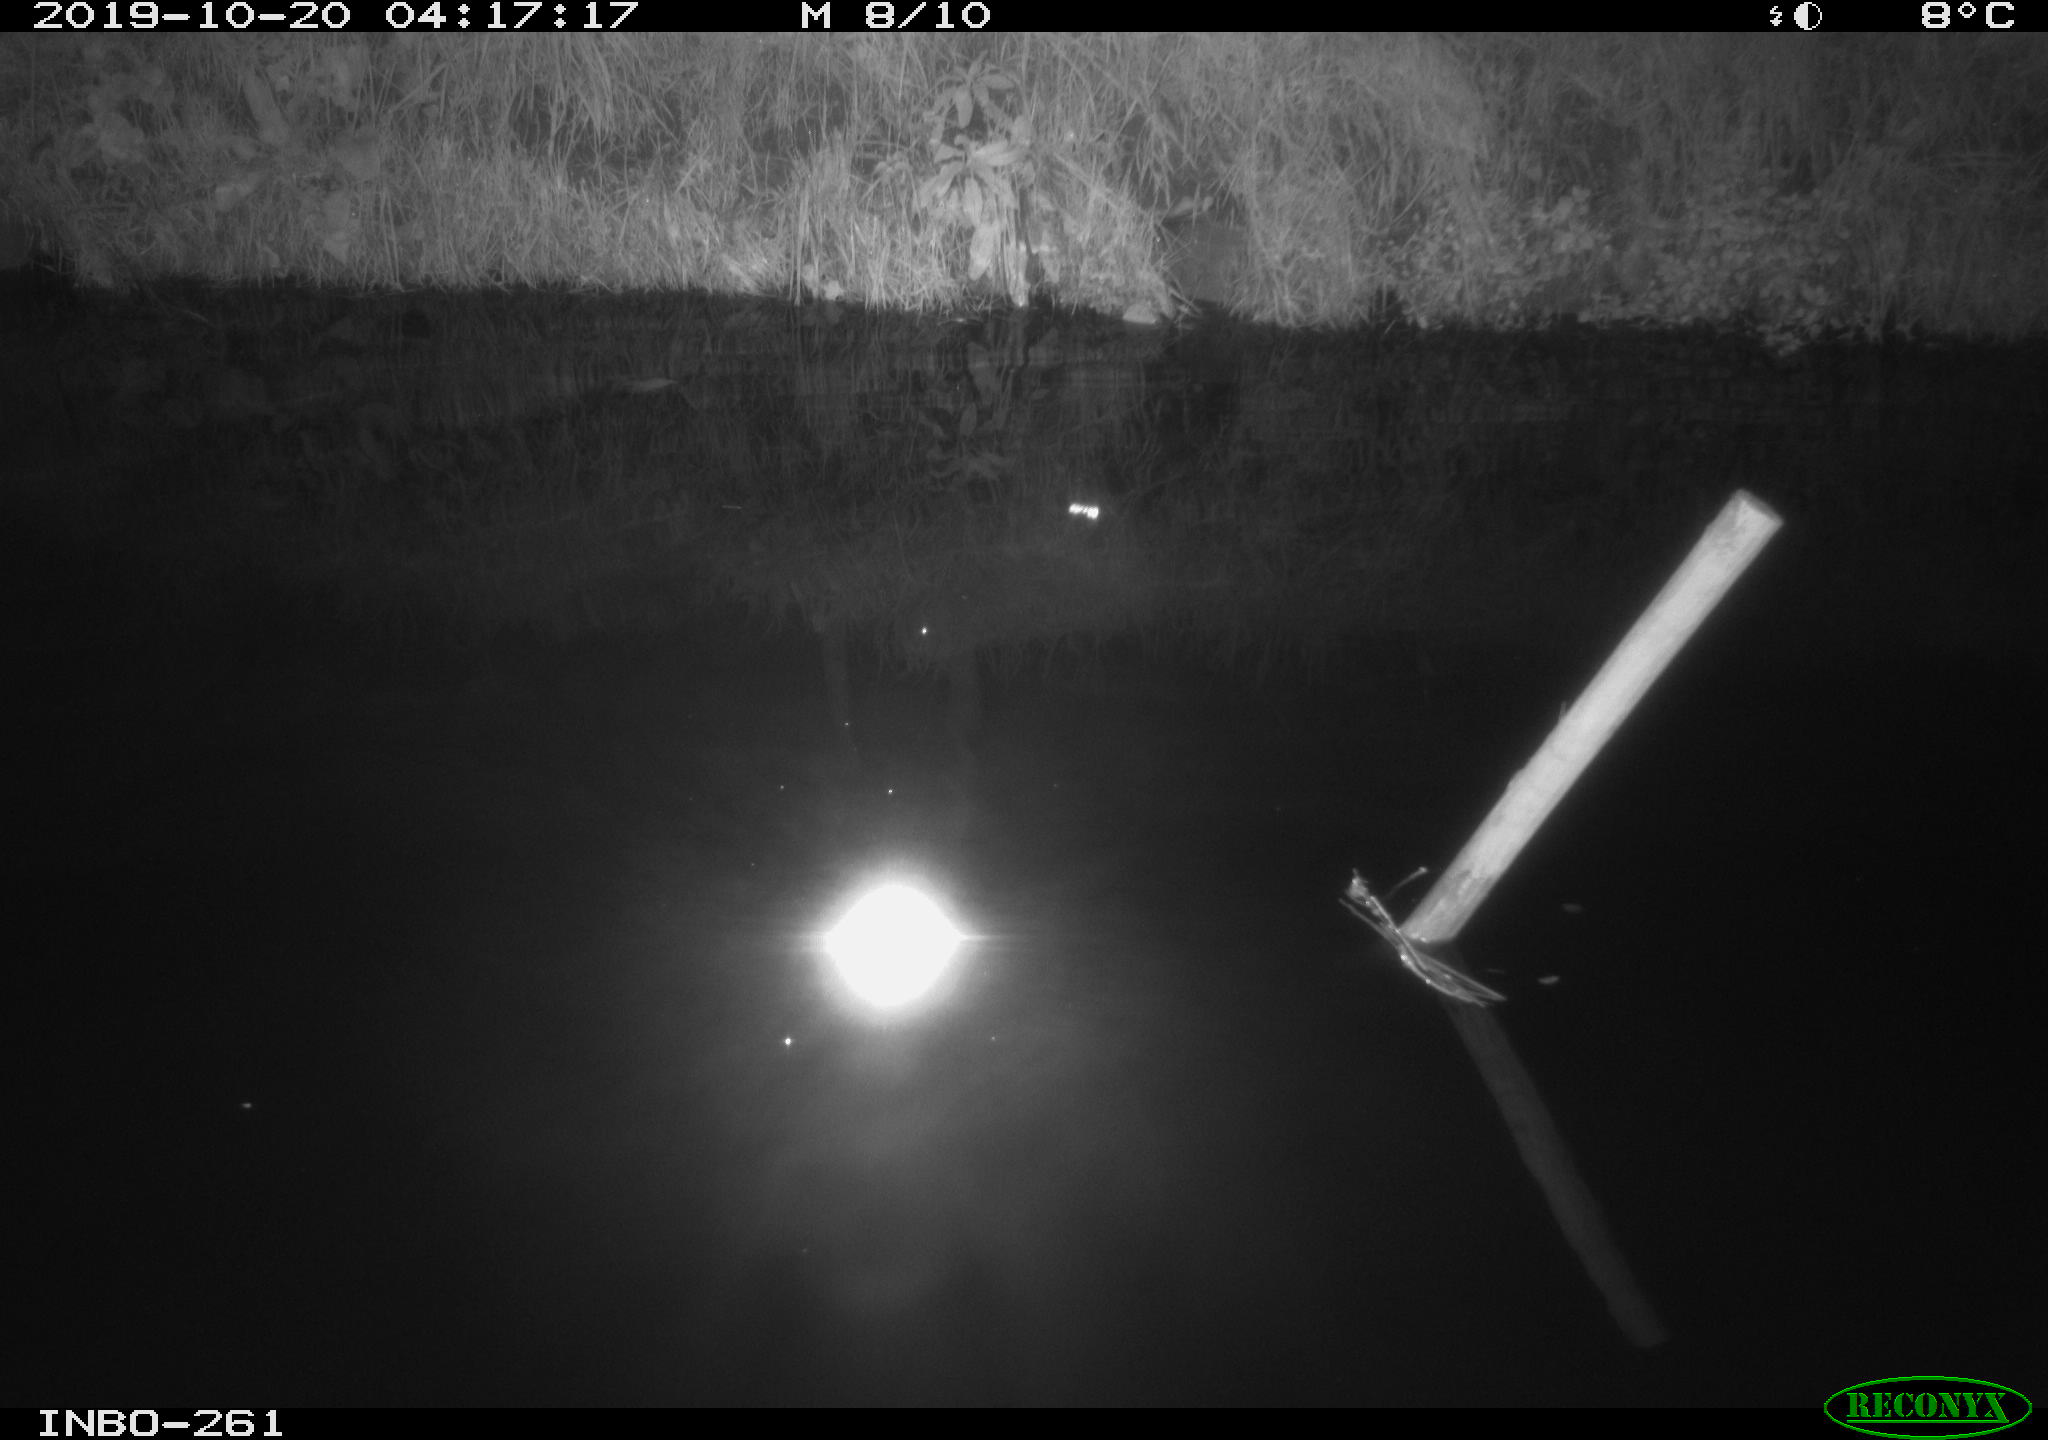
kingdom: Animalia
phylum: Chordata
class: Aves
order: Anseriformes
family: Anatidae
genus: Anas
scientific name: Anas platyrhynchos
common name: Mallard
